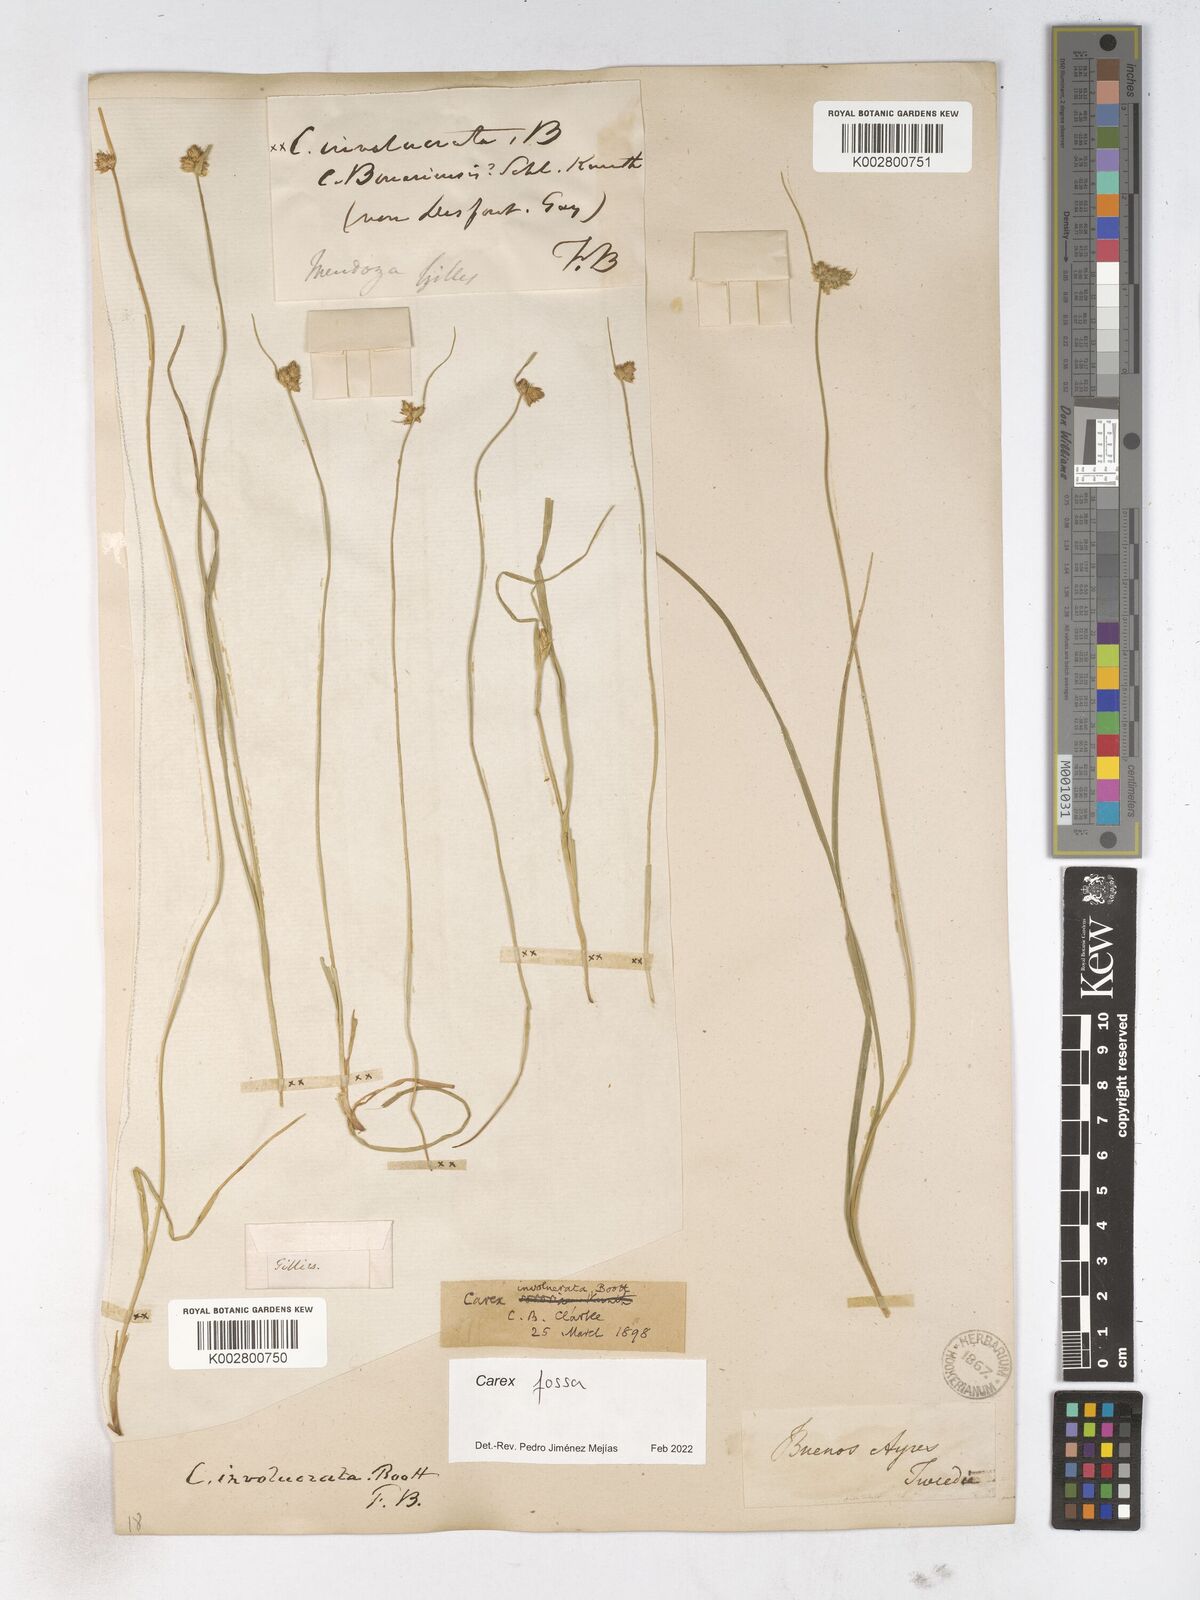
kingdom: Plantae
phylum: Tracheophyta
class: Liliopsida
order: Poales
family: Cyperaceae
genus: Carex
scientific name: Carex
